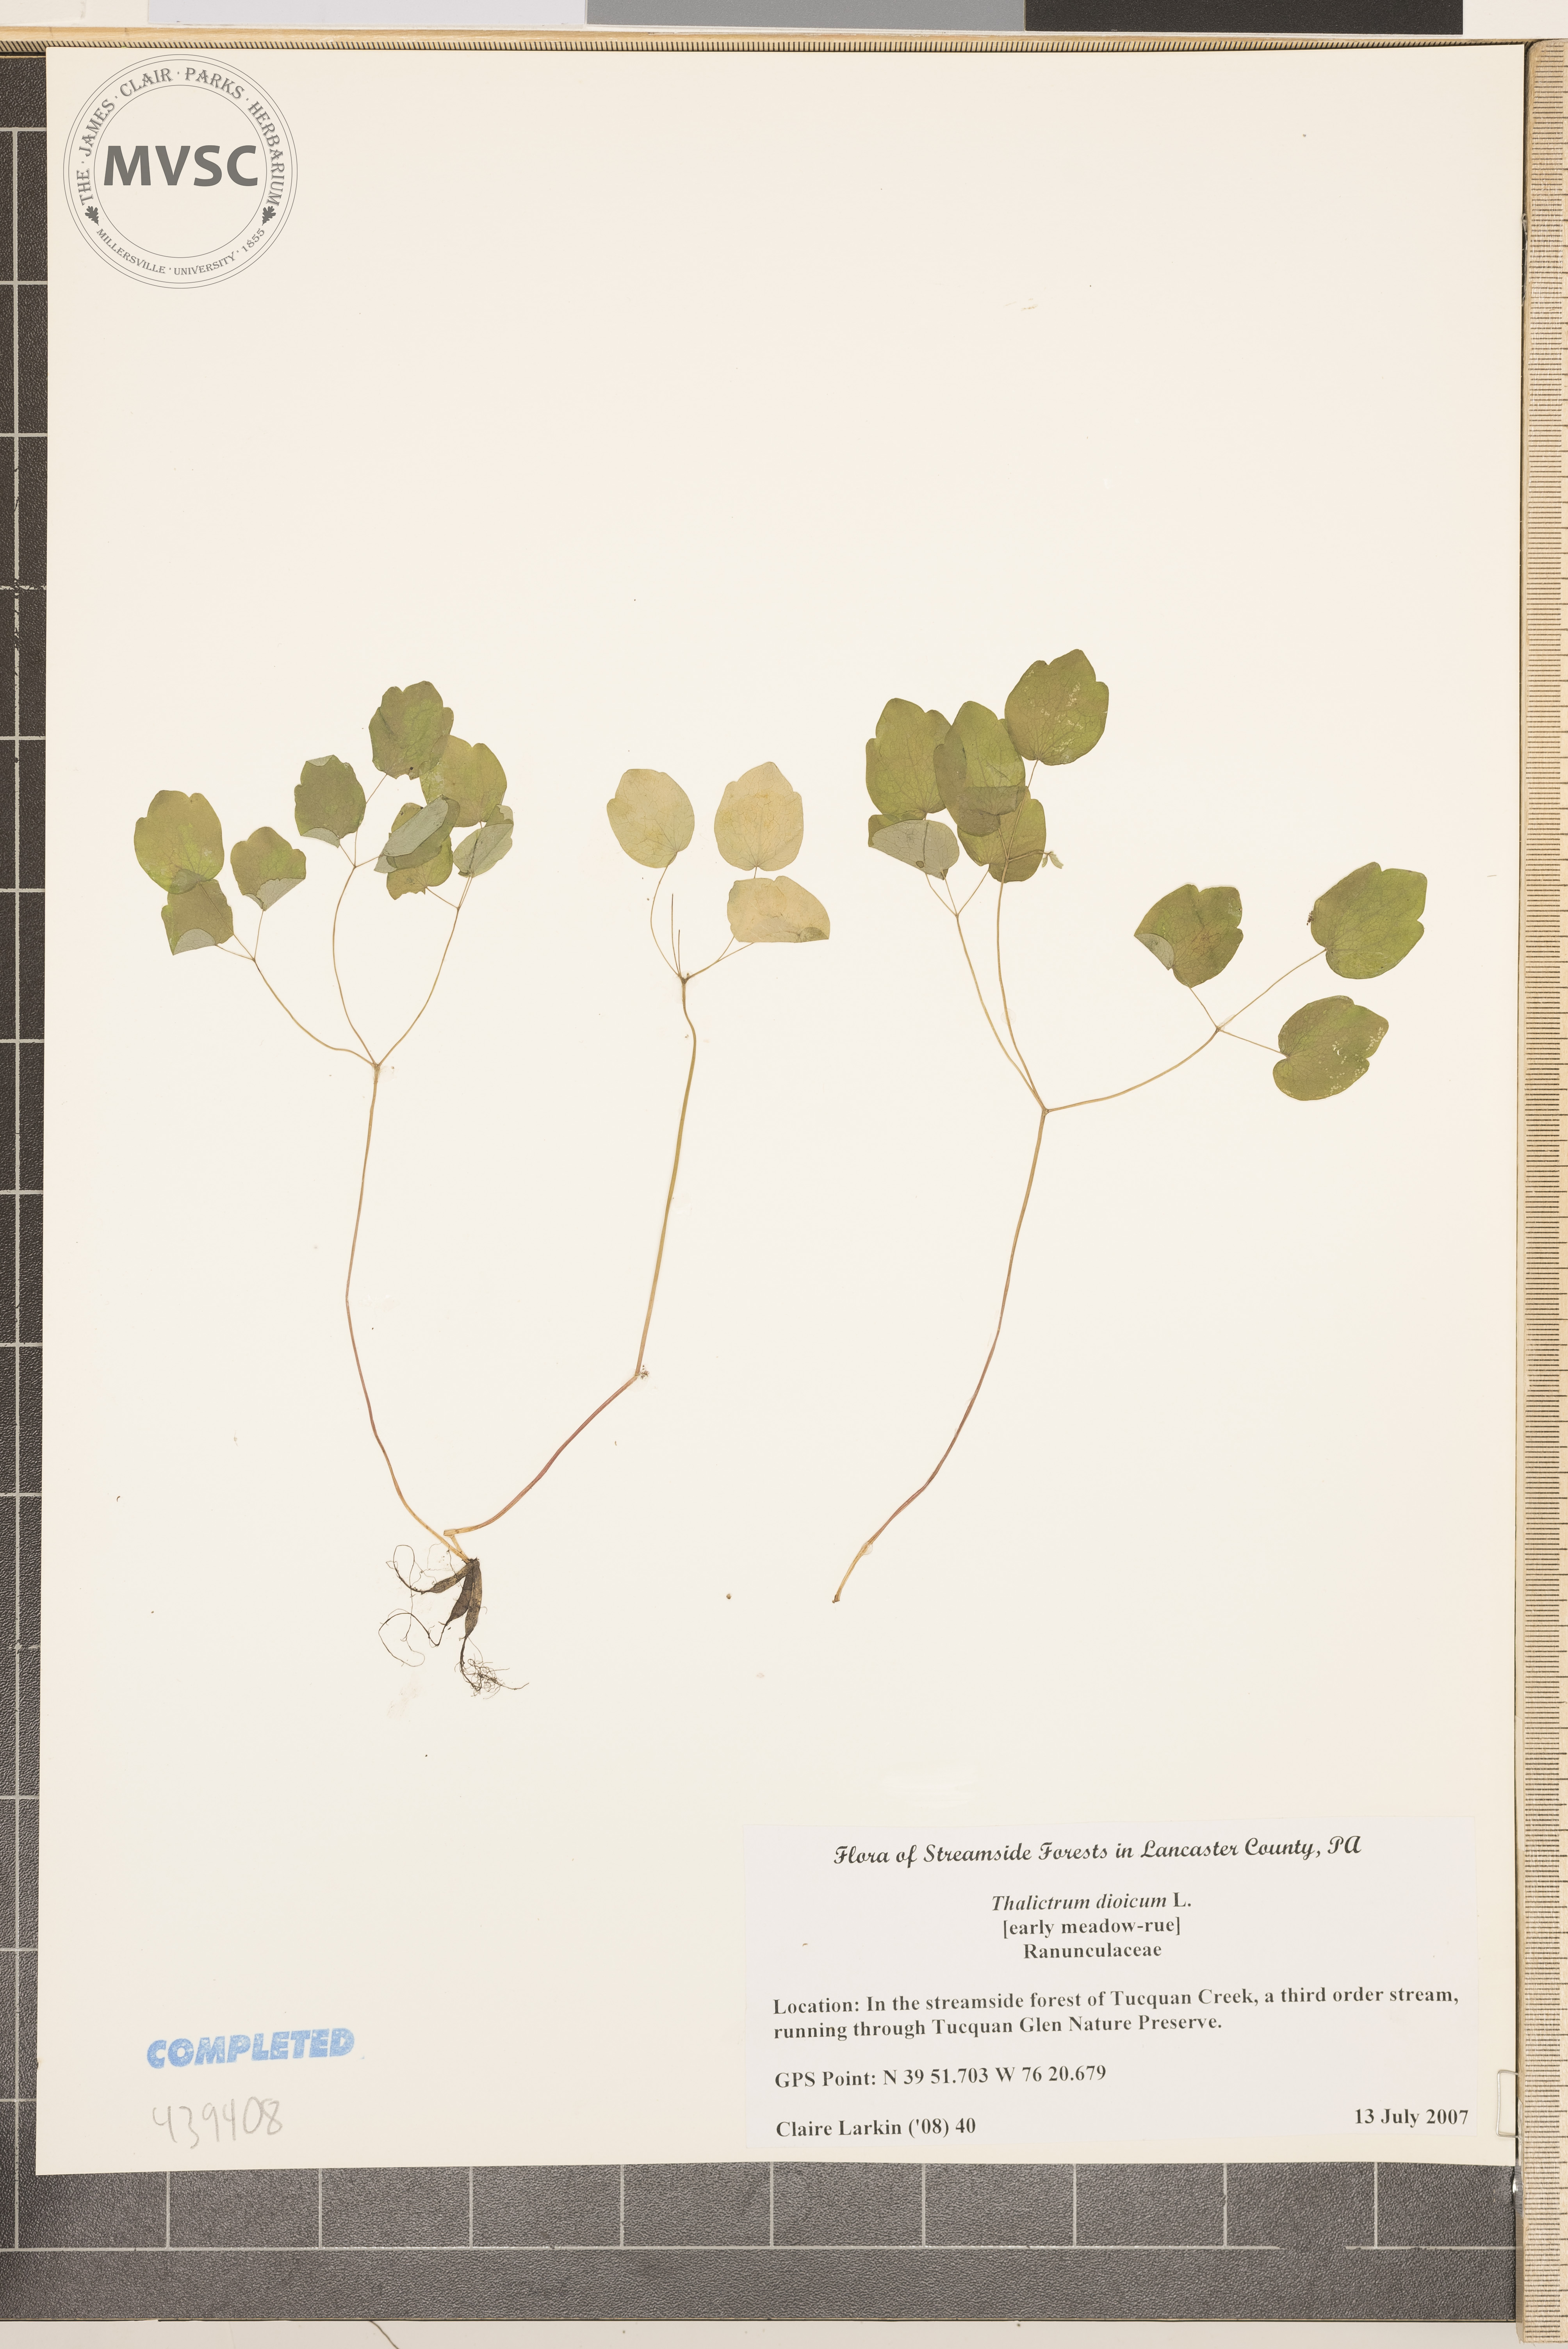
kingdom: Plantae
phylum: Tracheophyta
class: Magnoliopsida
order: Ranunculales
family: Ranunculaceae
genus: Thalictrum
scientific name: Thalictrum dioicum
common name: Early meadow-rue
